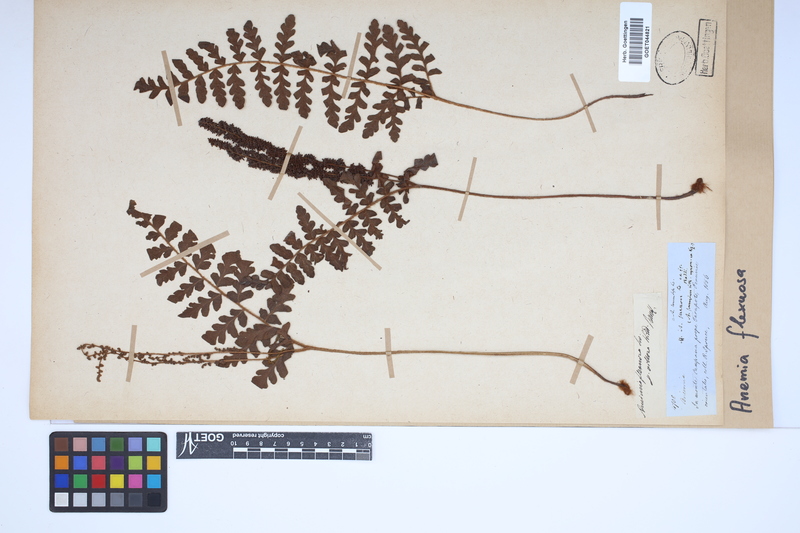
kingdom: Plantae
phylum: Tracheophyta
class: Polypodiopsida
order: Schizaeales
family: Anemiaceae
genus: Anemia
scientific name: Anemia flexuosa
